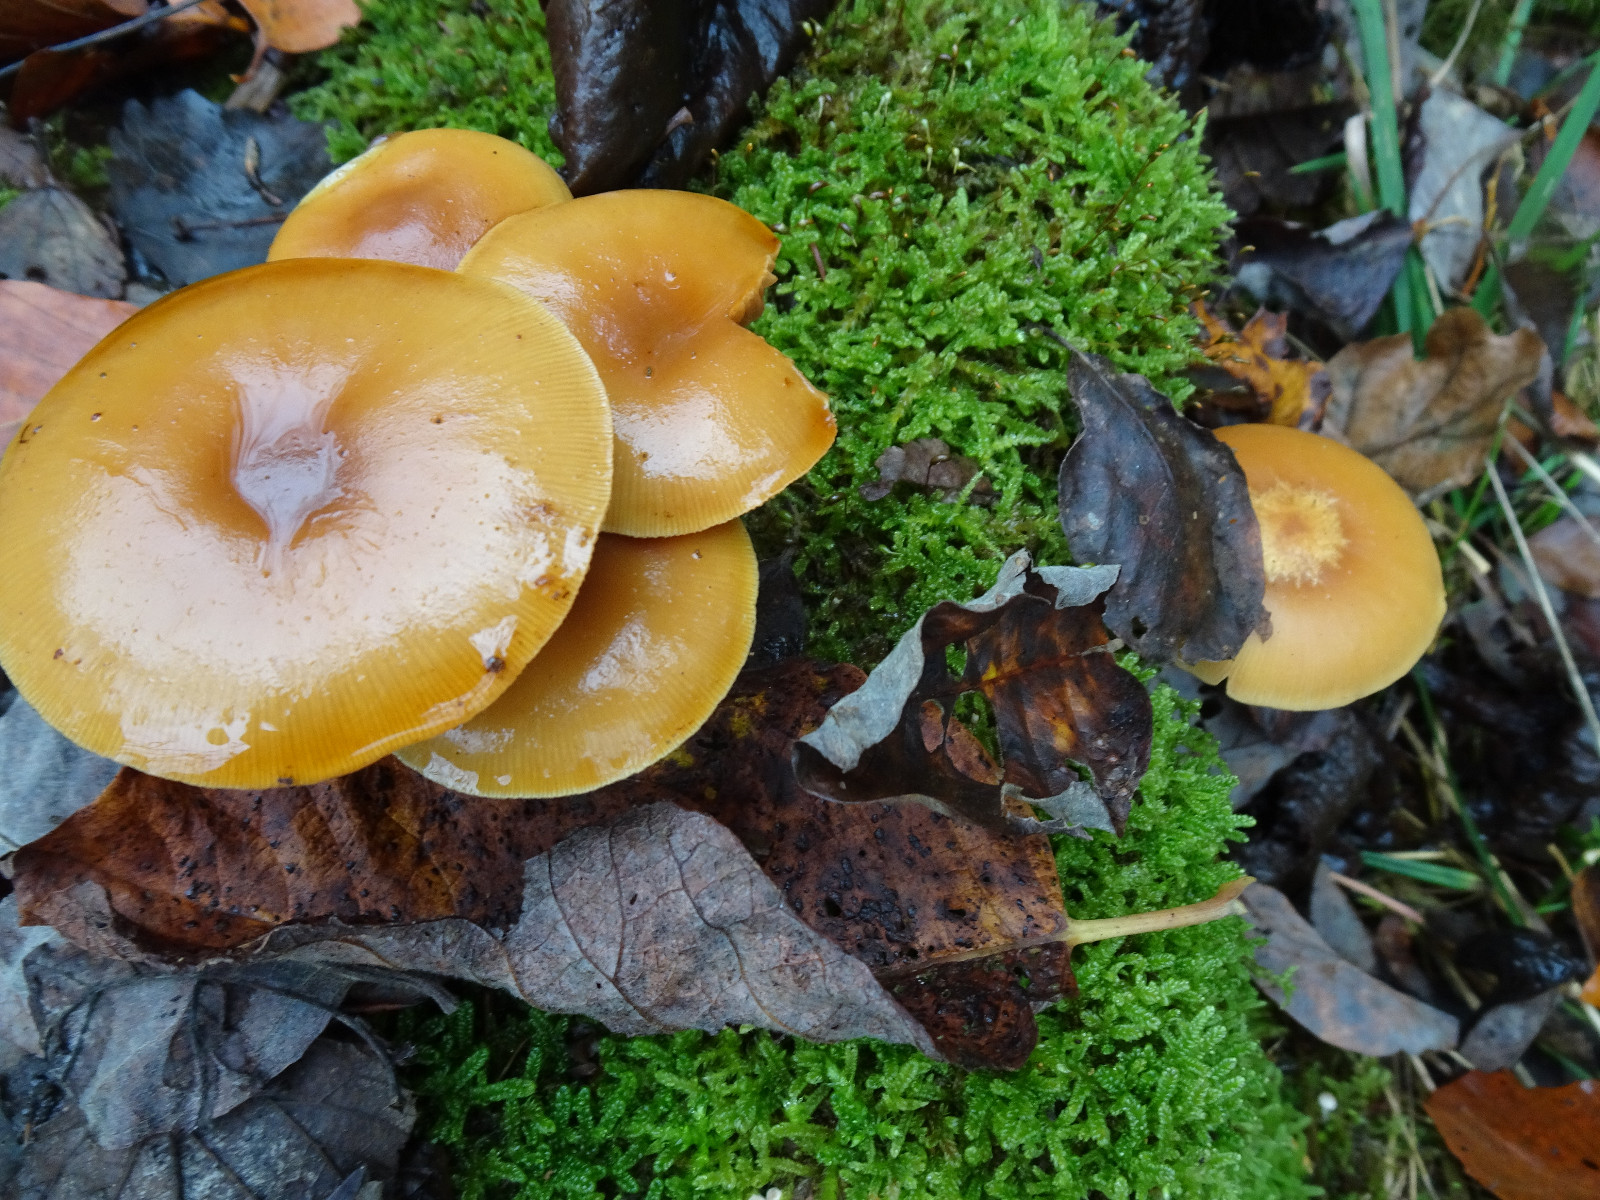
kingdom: Fungi
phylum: Basidiomycota
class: Agaricomycetes
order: Agaricales
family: Strophariaceae
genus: Kuehneromyces
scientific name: Kuehneromyces mutabilis
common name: foranderlig skælhat
